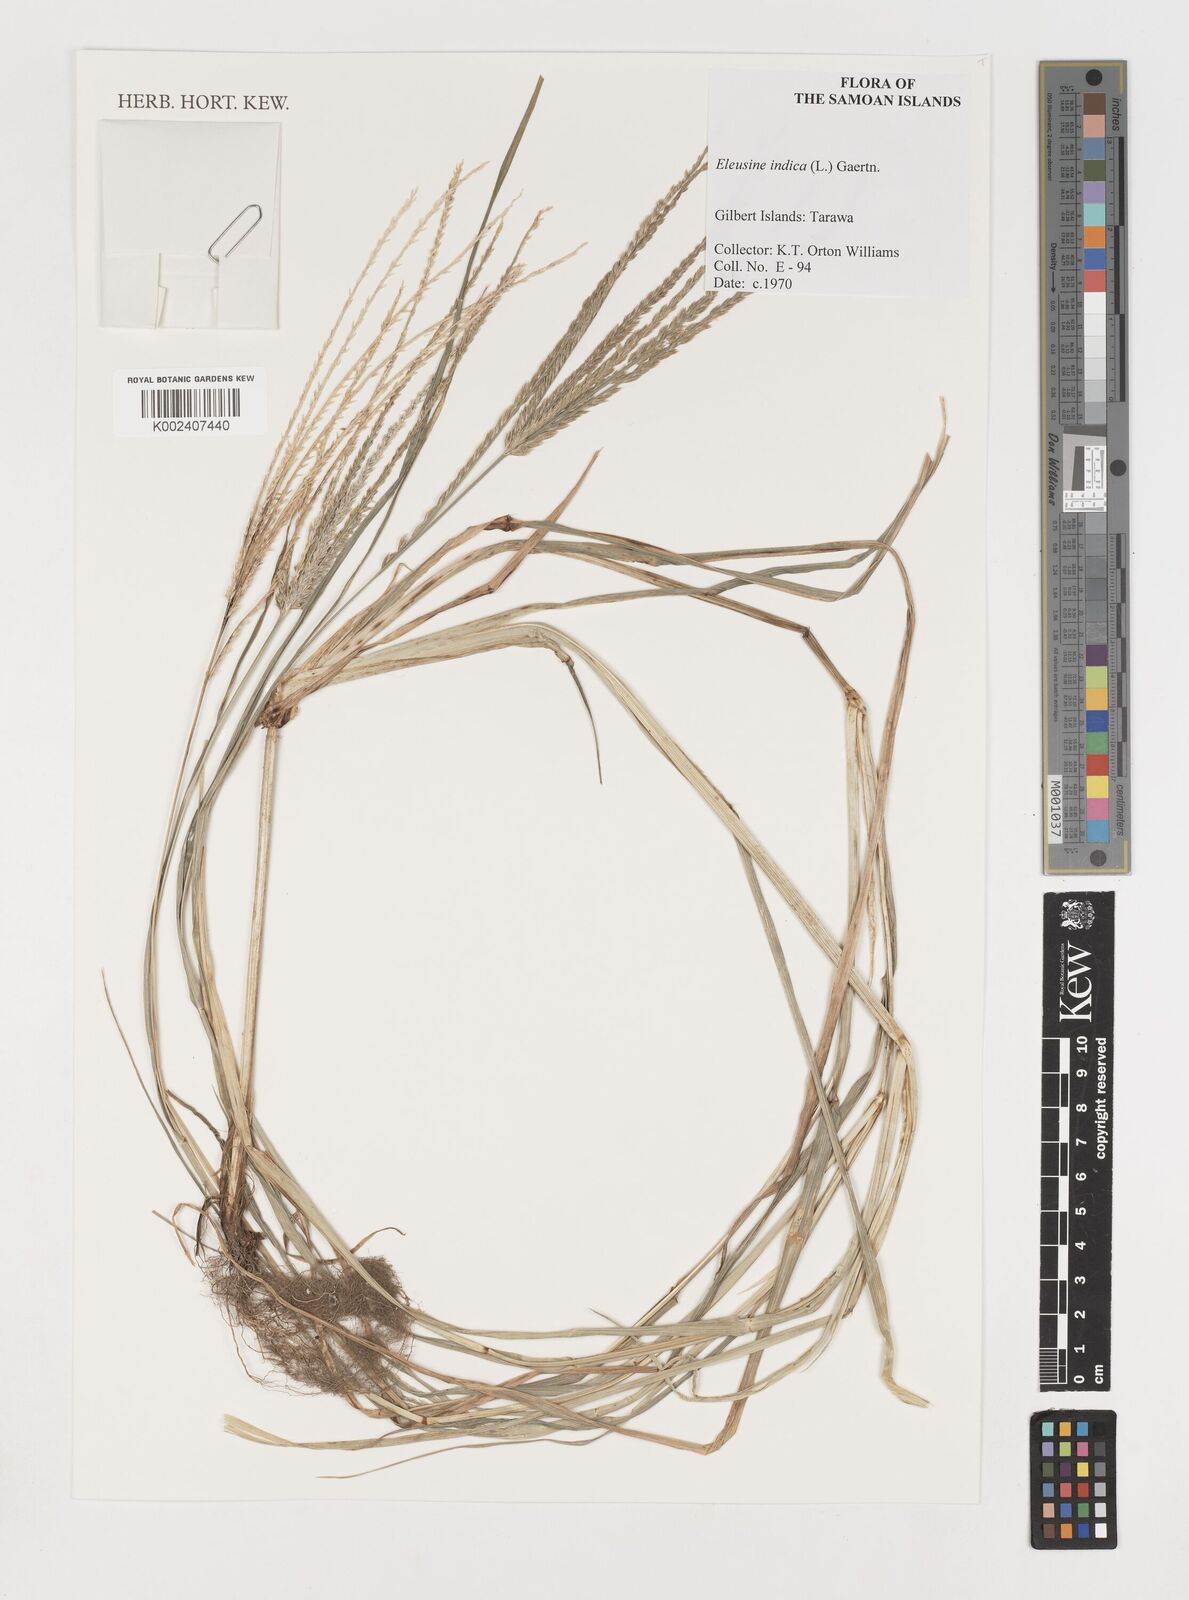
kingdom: Plantae
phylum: Tracheophyta
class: Liliopsida
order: Poales
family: Poaceae
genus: Eleusine
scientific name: Eleusine indica
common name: Yard-grass
